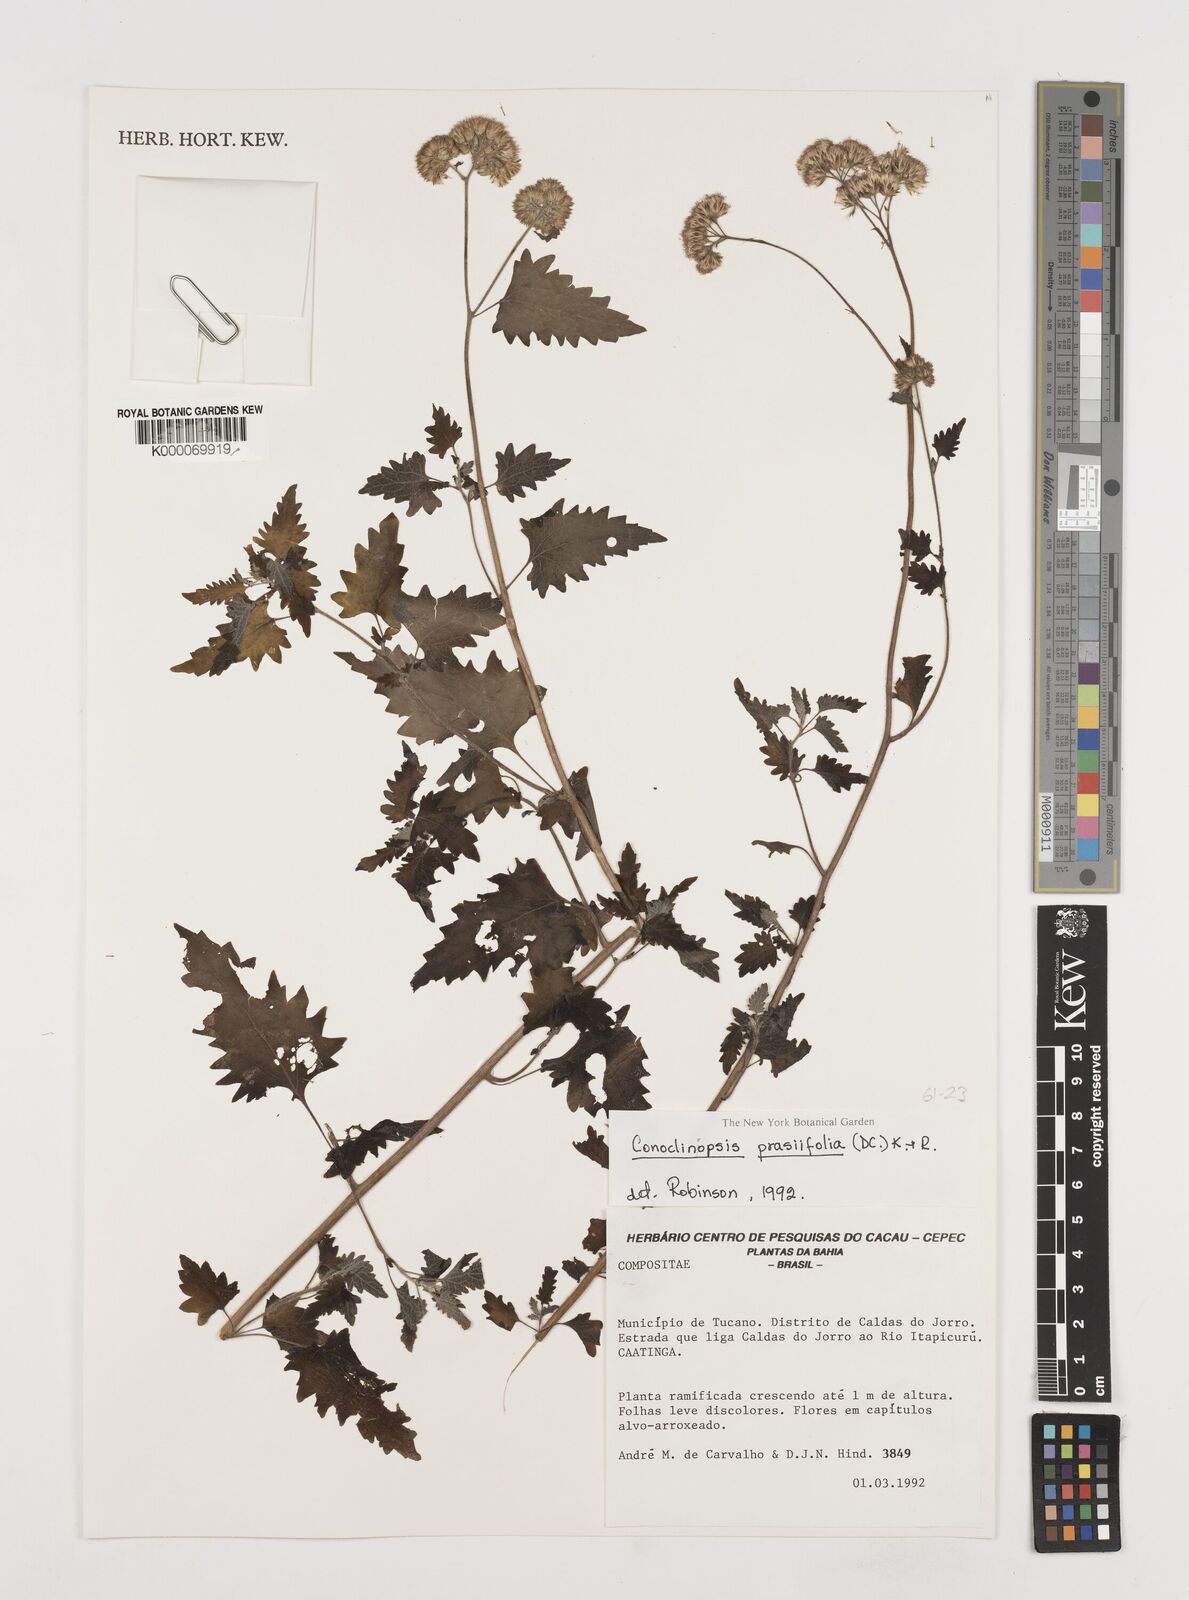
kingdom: Plantae
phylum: Tracheophyta
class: Magnoliopsida
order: Asterales
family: Asteraceae
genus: Conocliniopsis
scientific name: Conocliniopsis grossedentata
